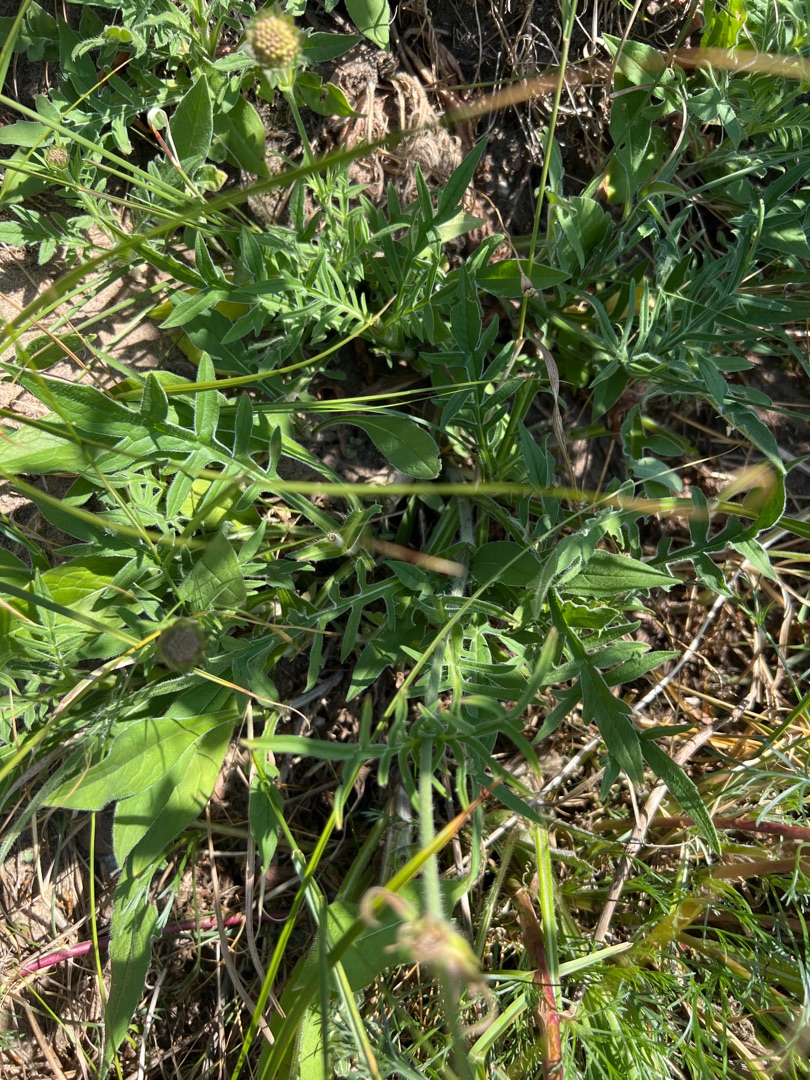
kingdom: Plantae
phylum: Tracheophyta
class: Magnoliopsida
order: Dipsacales
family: Caprifoliaceae
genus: Knautia
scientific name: Knautia arvensis
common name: Blåhat
